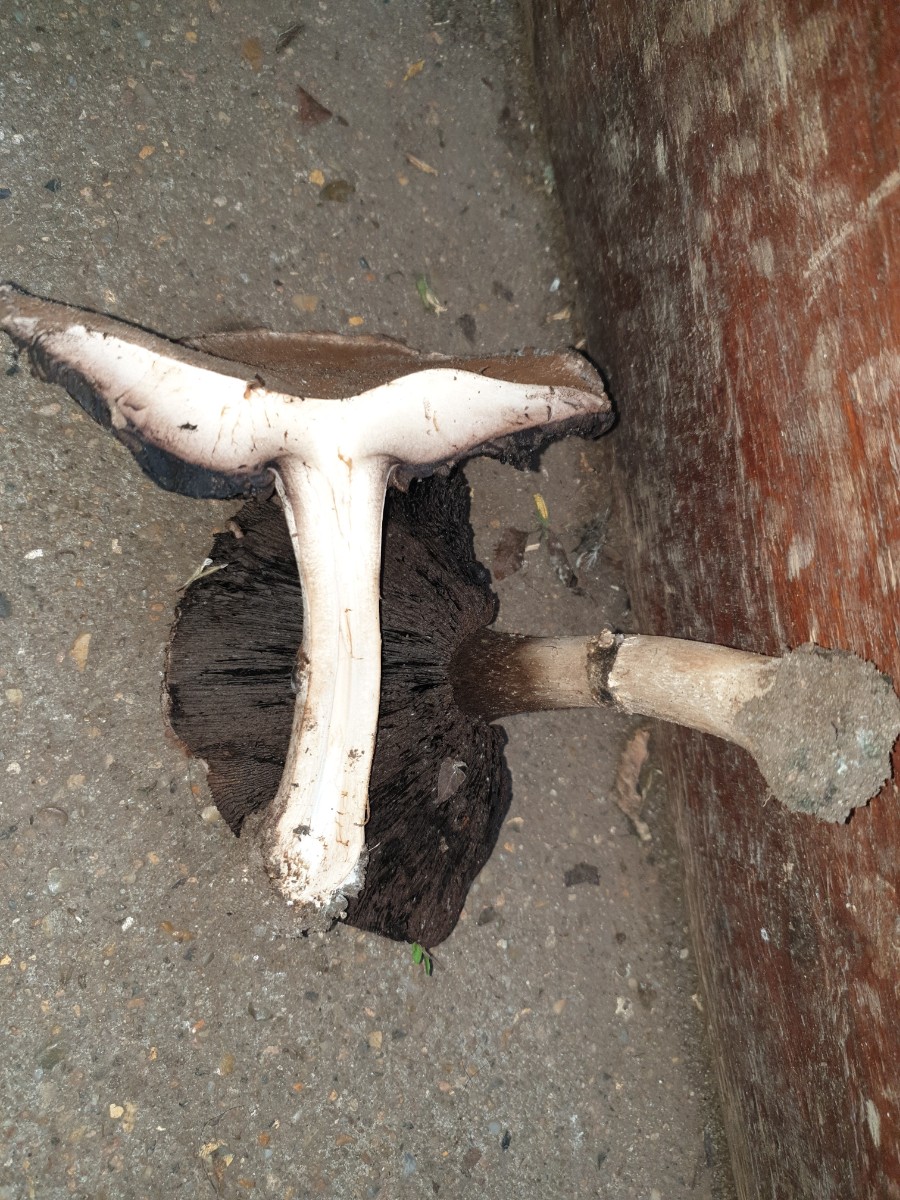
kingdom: Fungi
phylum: Basidiomycota
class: Agaricomycetes
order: Agaricales
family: Agaricaceae
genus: Agaricus
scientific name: Agaricus
